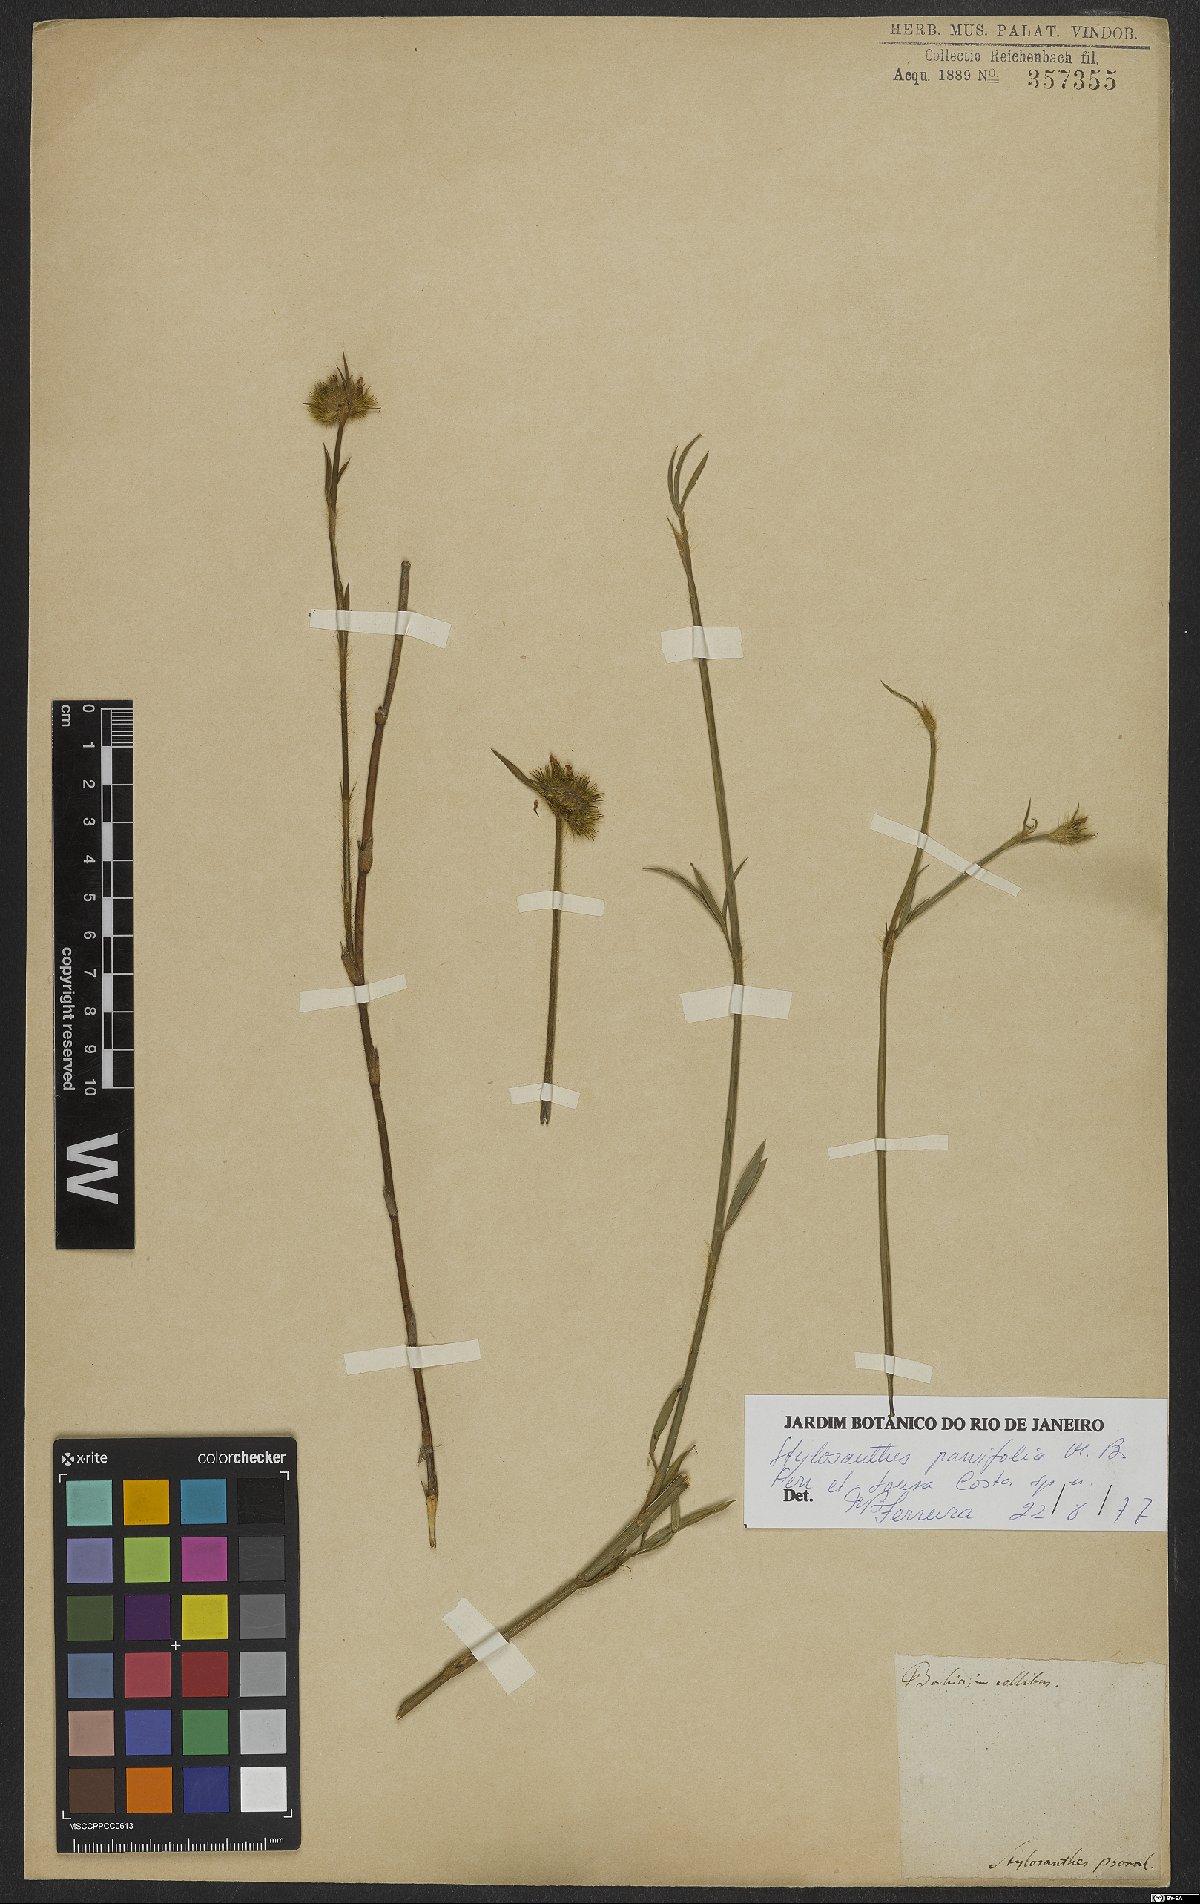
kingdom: Plantae
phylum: Tracheophyta
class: Magnoliopsida
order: Fabales
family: Fabaceae
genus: Stylosanthes
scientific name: Stylosanthes
